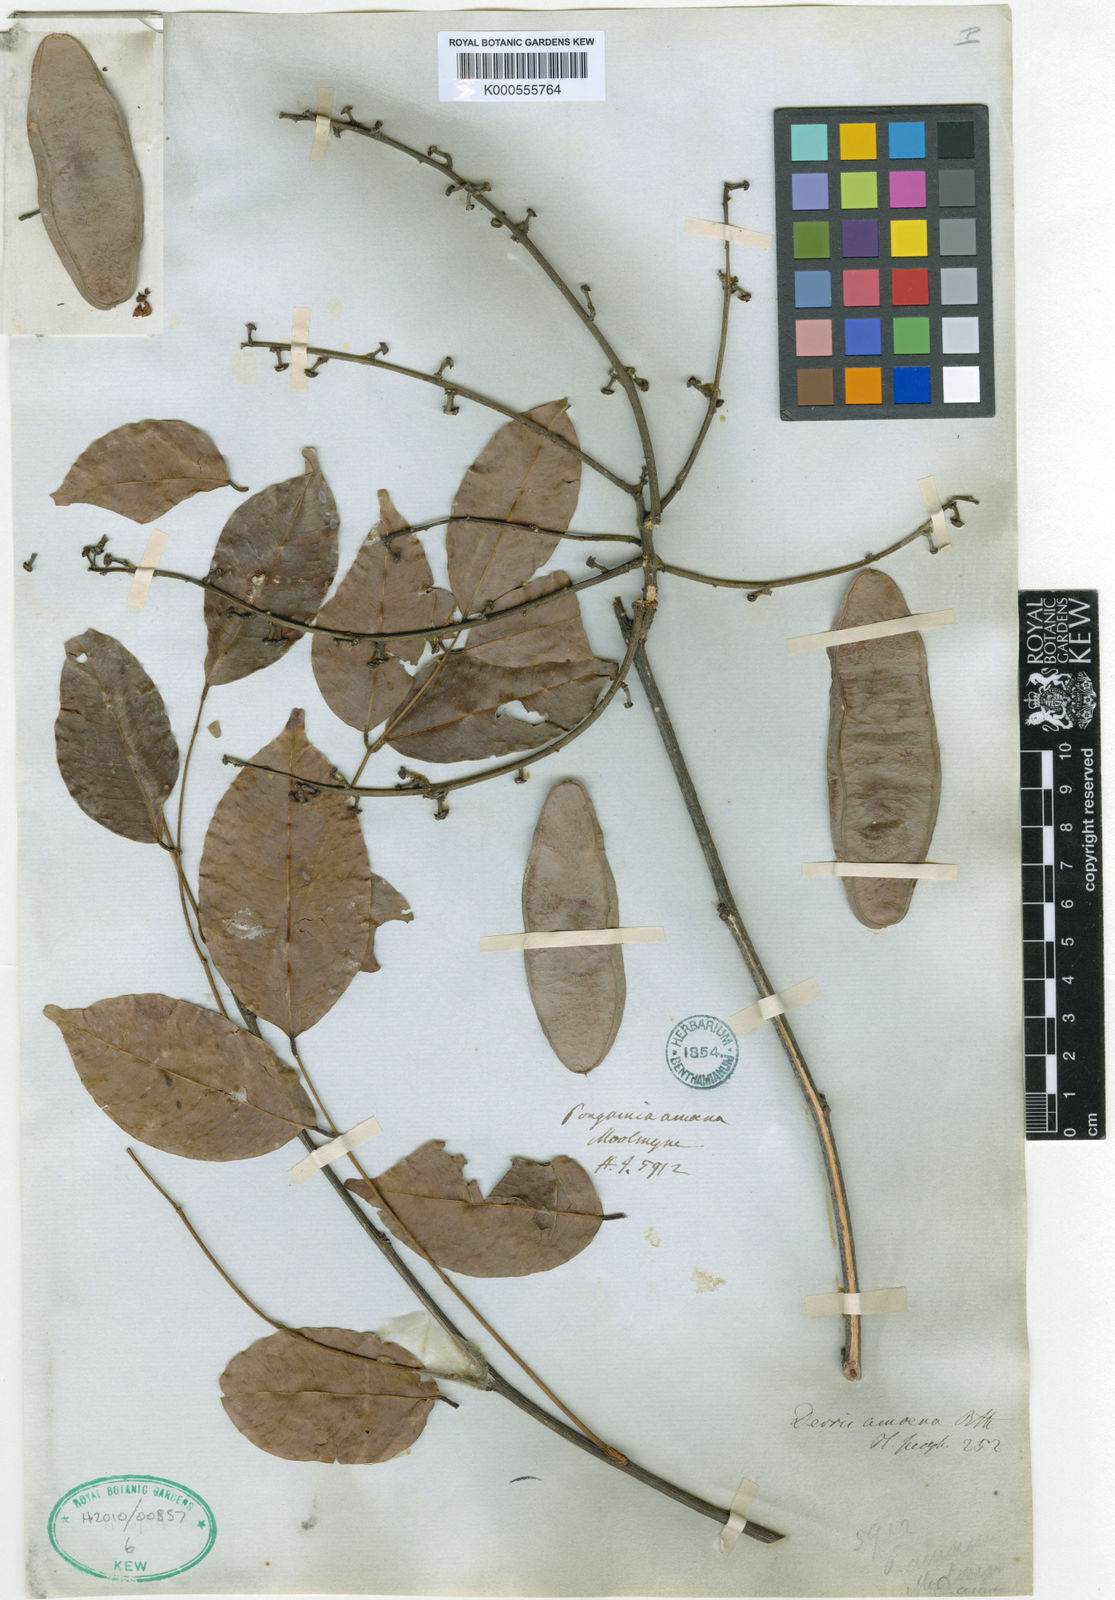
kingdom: Plantae
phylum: Tracheophyta
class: Magnoliopsida
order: Fabales
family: Fabaceae
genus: Derris
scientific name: Derris amoena
